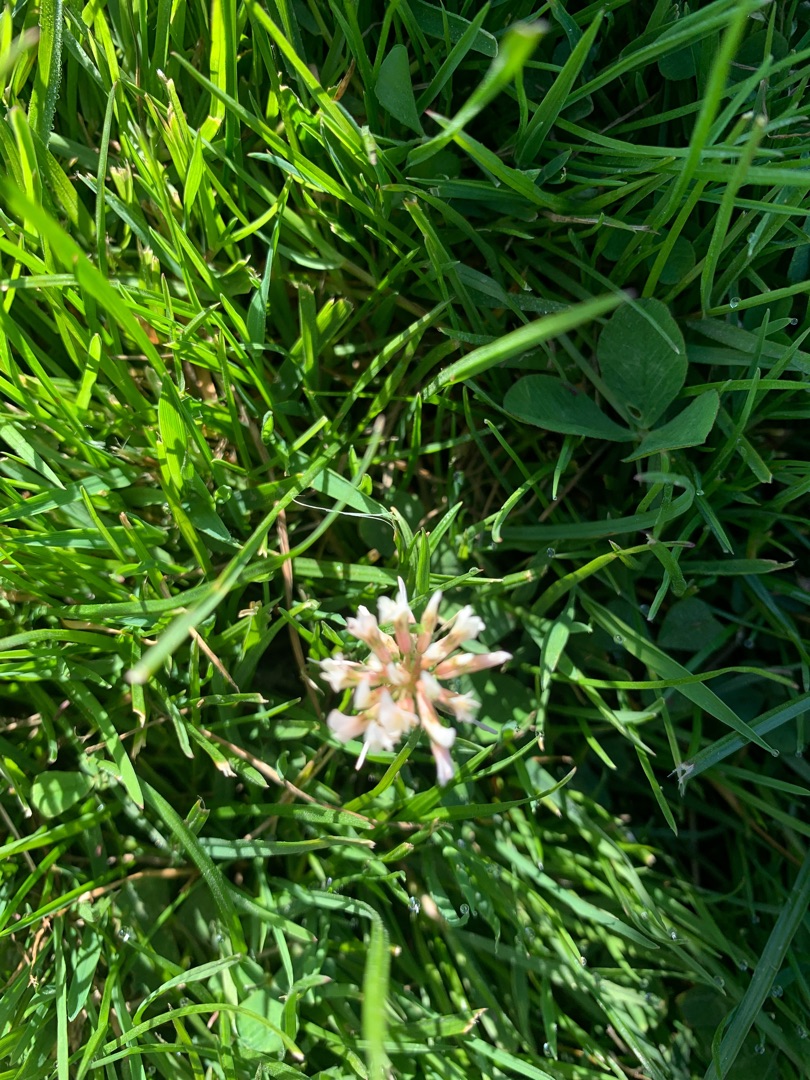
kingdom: Plantae
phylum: Tracheophyta
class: Magnoliopsida
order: Fabales
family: Fabaceae
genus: Trifolium
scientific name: Trifolium repens
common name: Hvid-kløver
